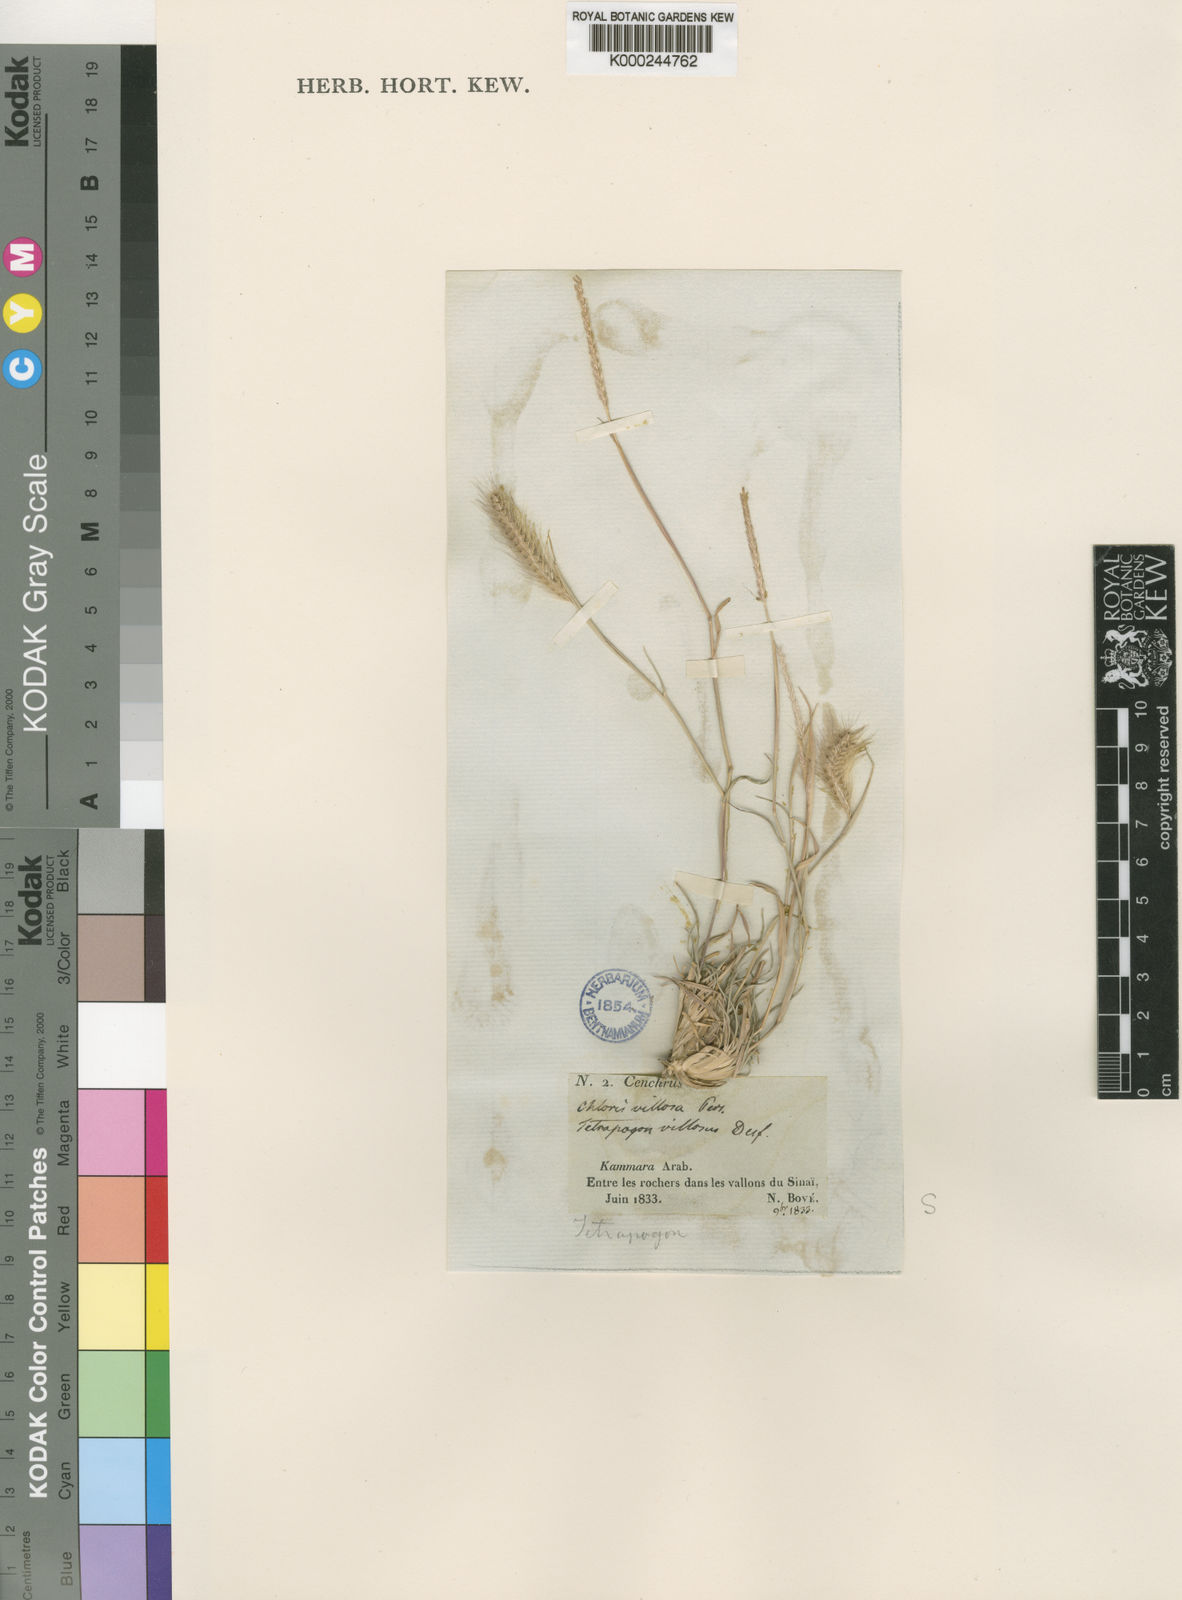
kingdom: Plantae
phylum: Tracheophyta
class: Liliopsida
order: Poales
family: Poaceae
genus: Tetrapogon
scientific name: Tetrapogon villosus
